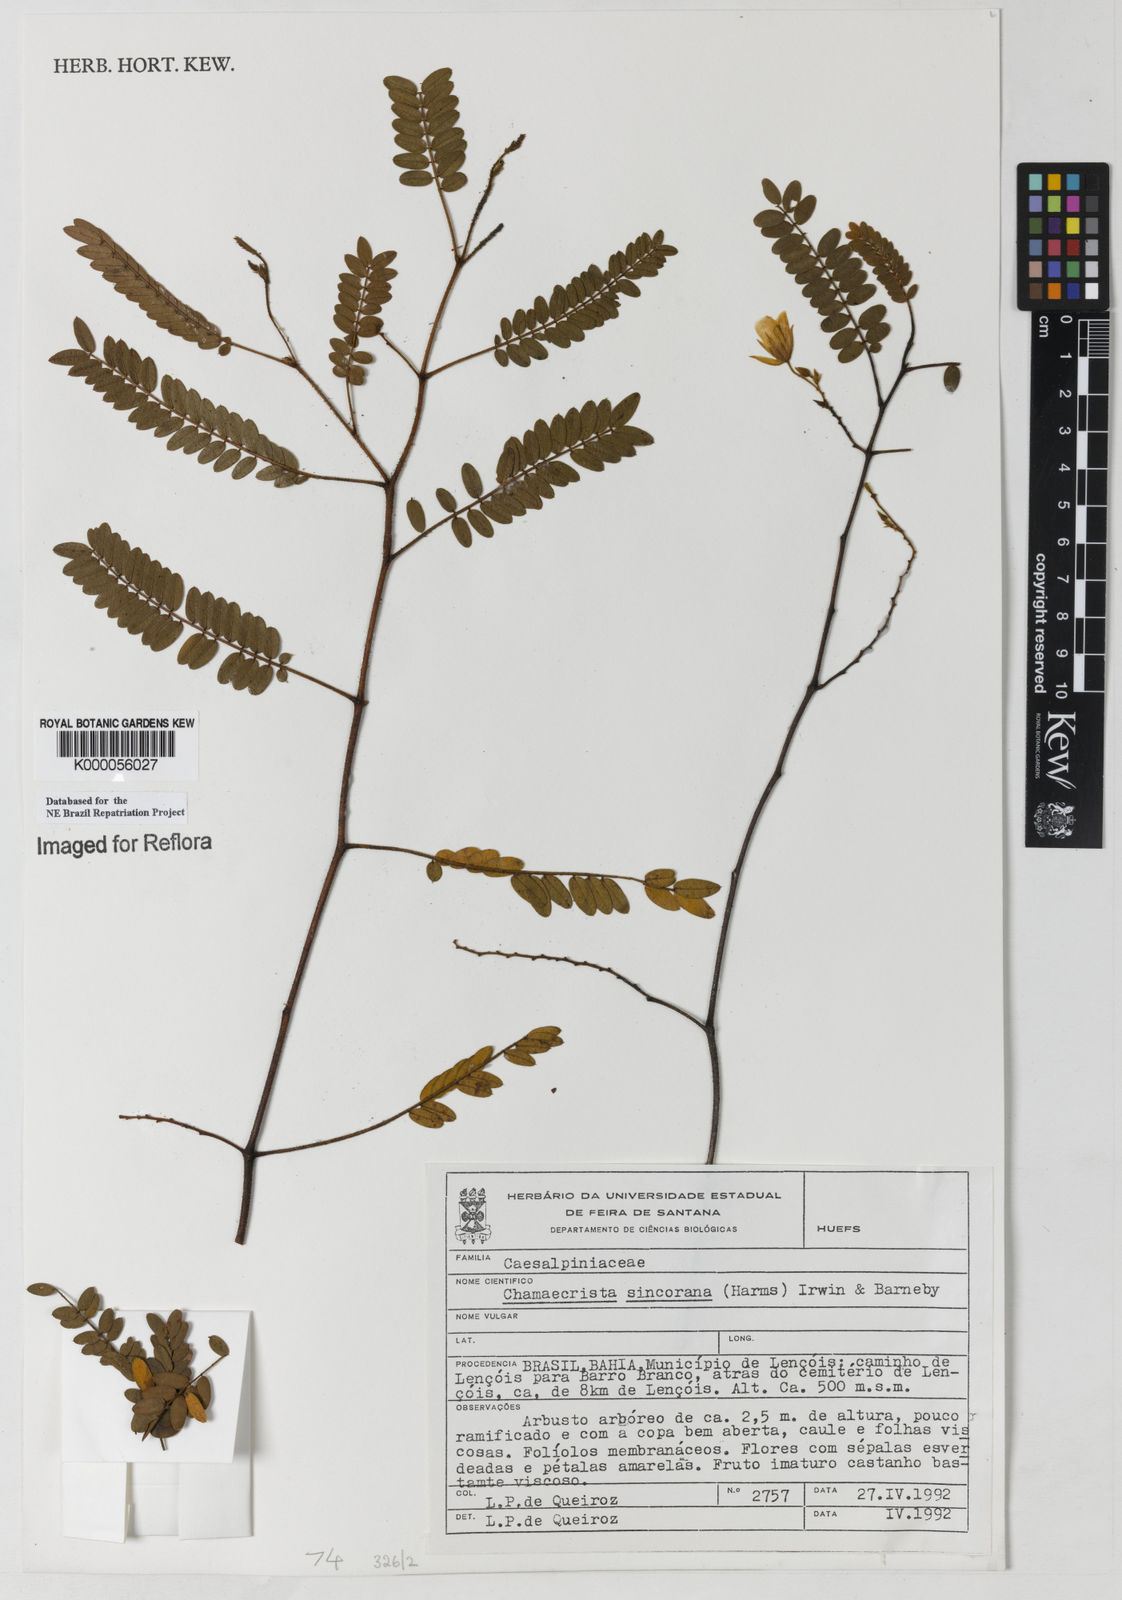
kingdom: Plantae
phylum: Tracheophyta
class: Magnoliopsida
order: Fabales
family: Fabaceae
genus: Chamaecrista
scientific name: Chamaecrista sincorana
